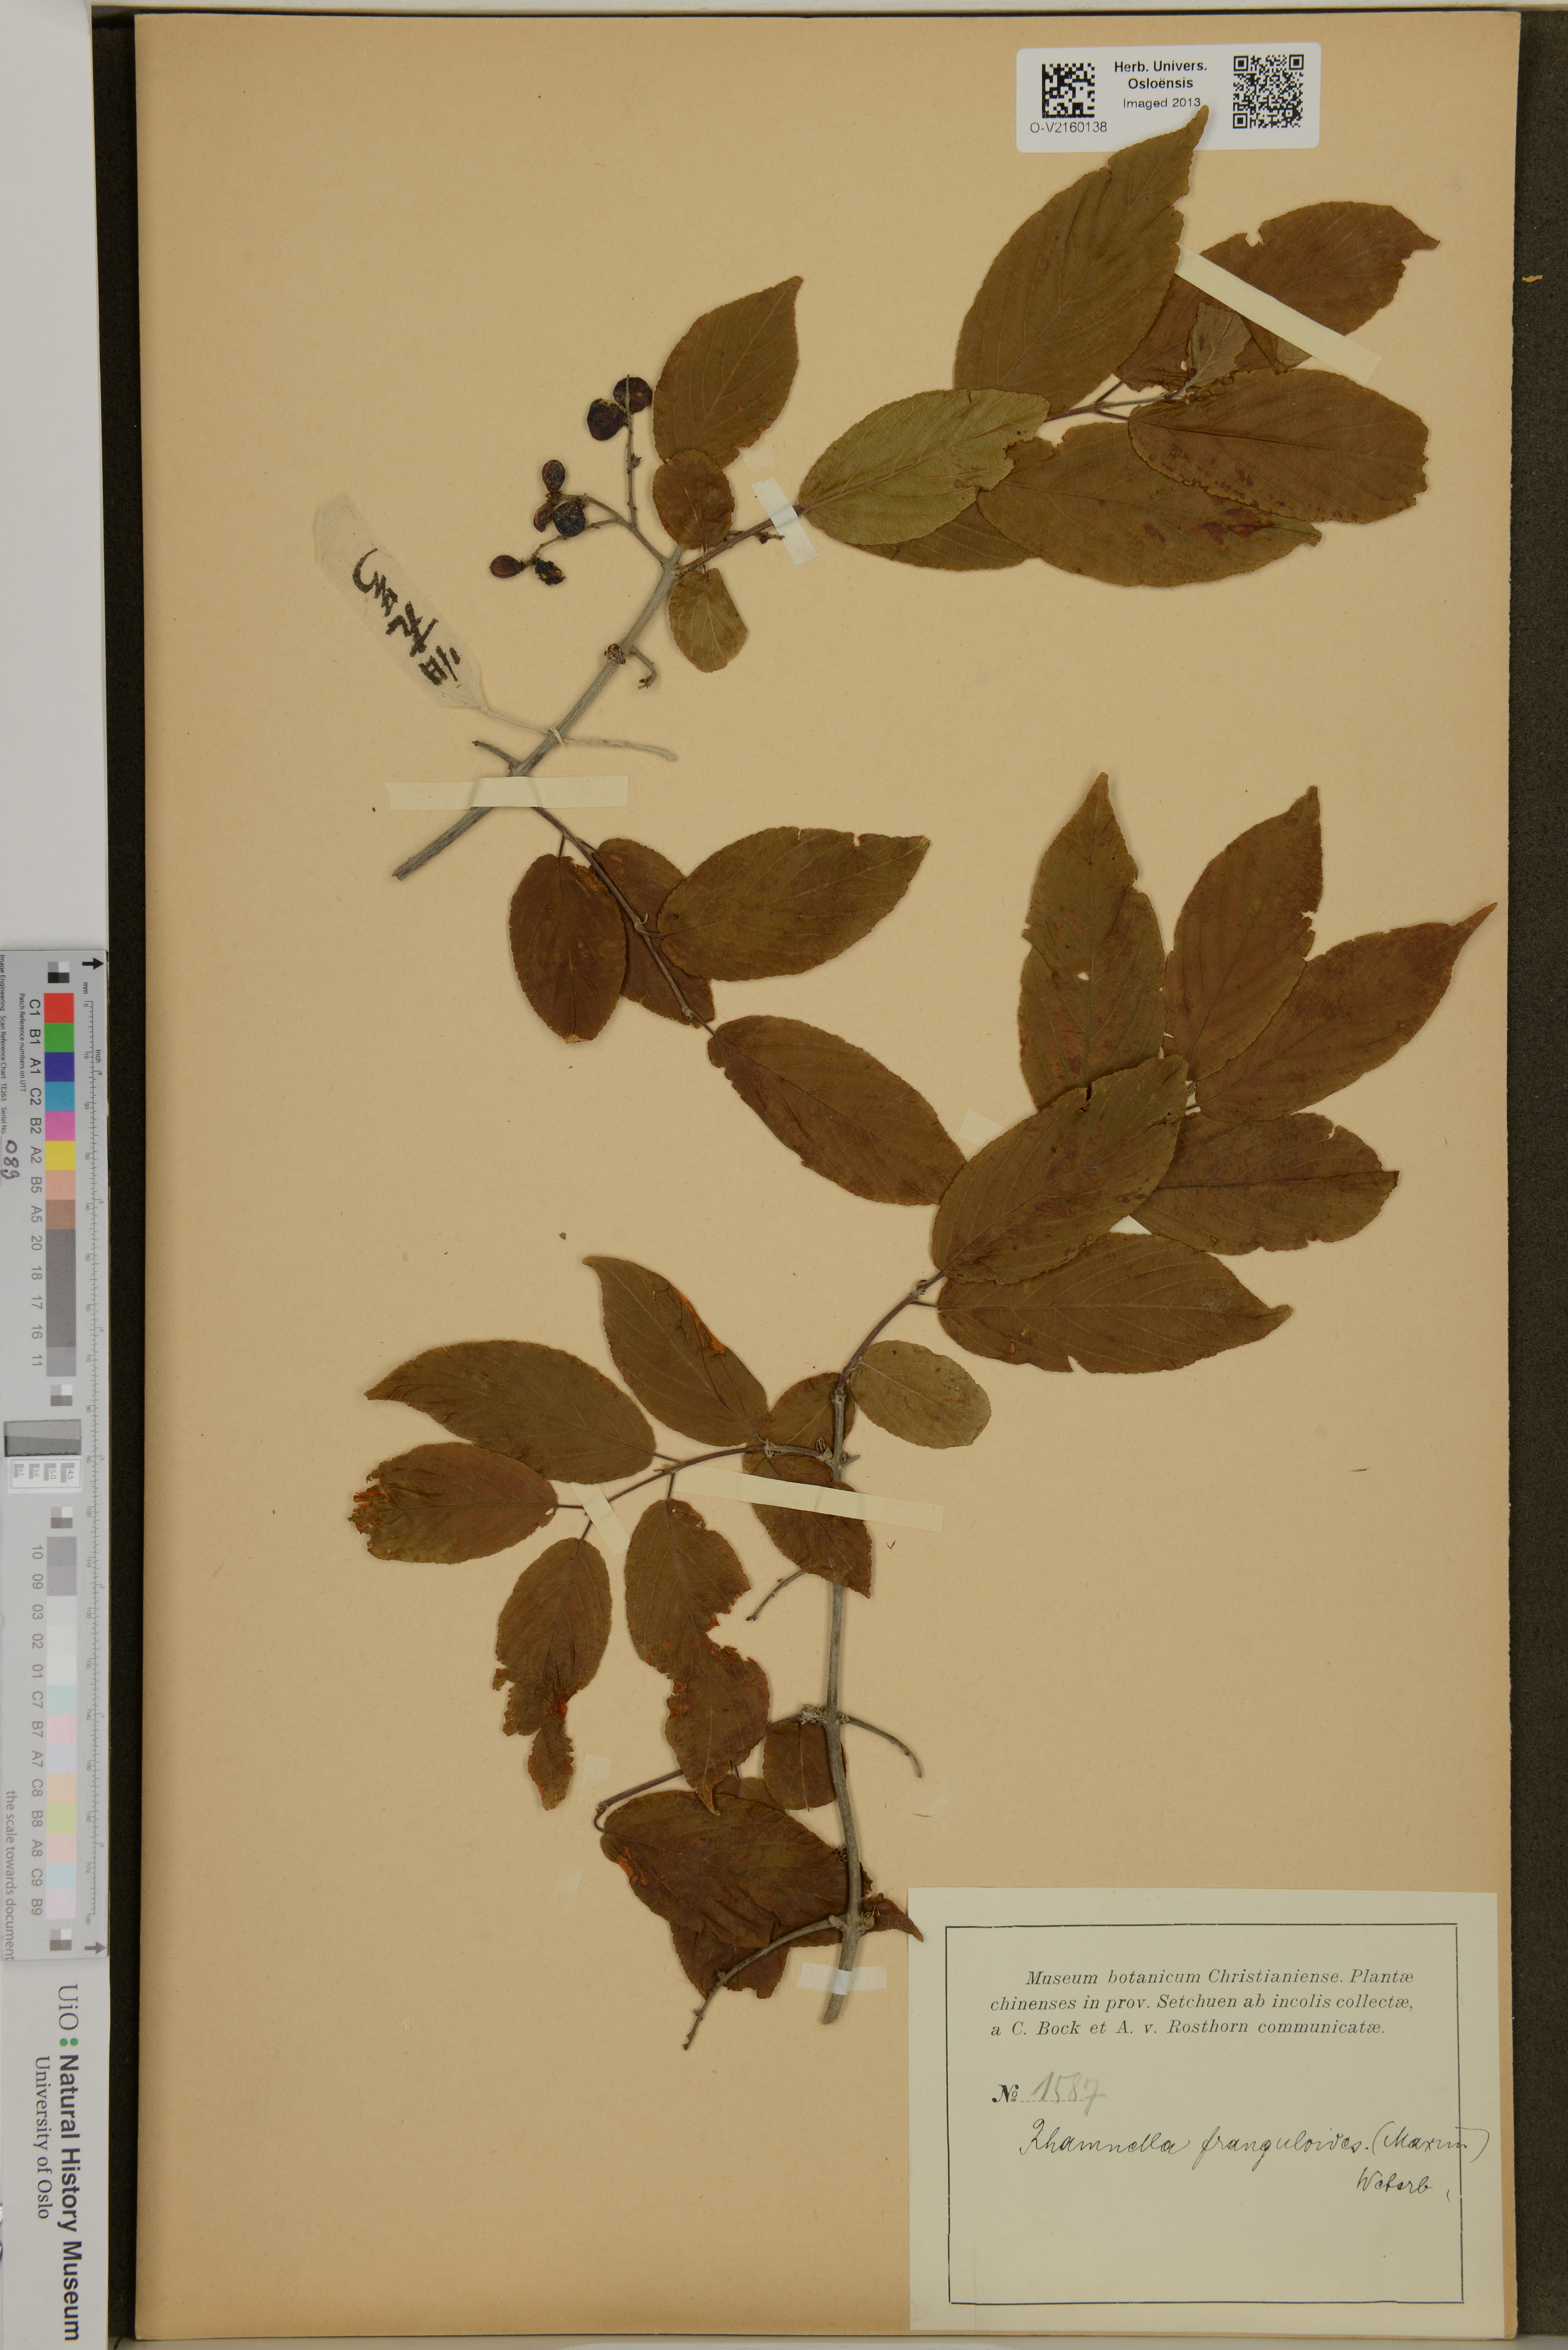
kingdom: Plantae
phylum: Tracheophyta
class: Magnoliopsida
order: Rosales
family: Rhamnaceae
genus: Rhamnella
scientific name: Rhamnella franguloides
